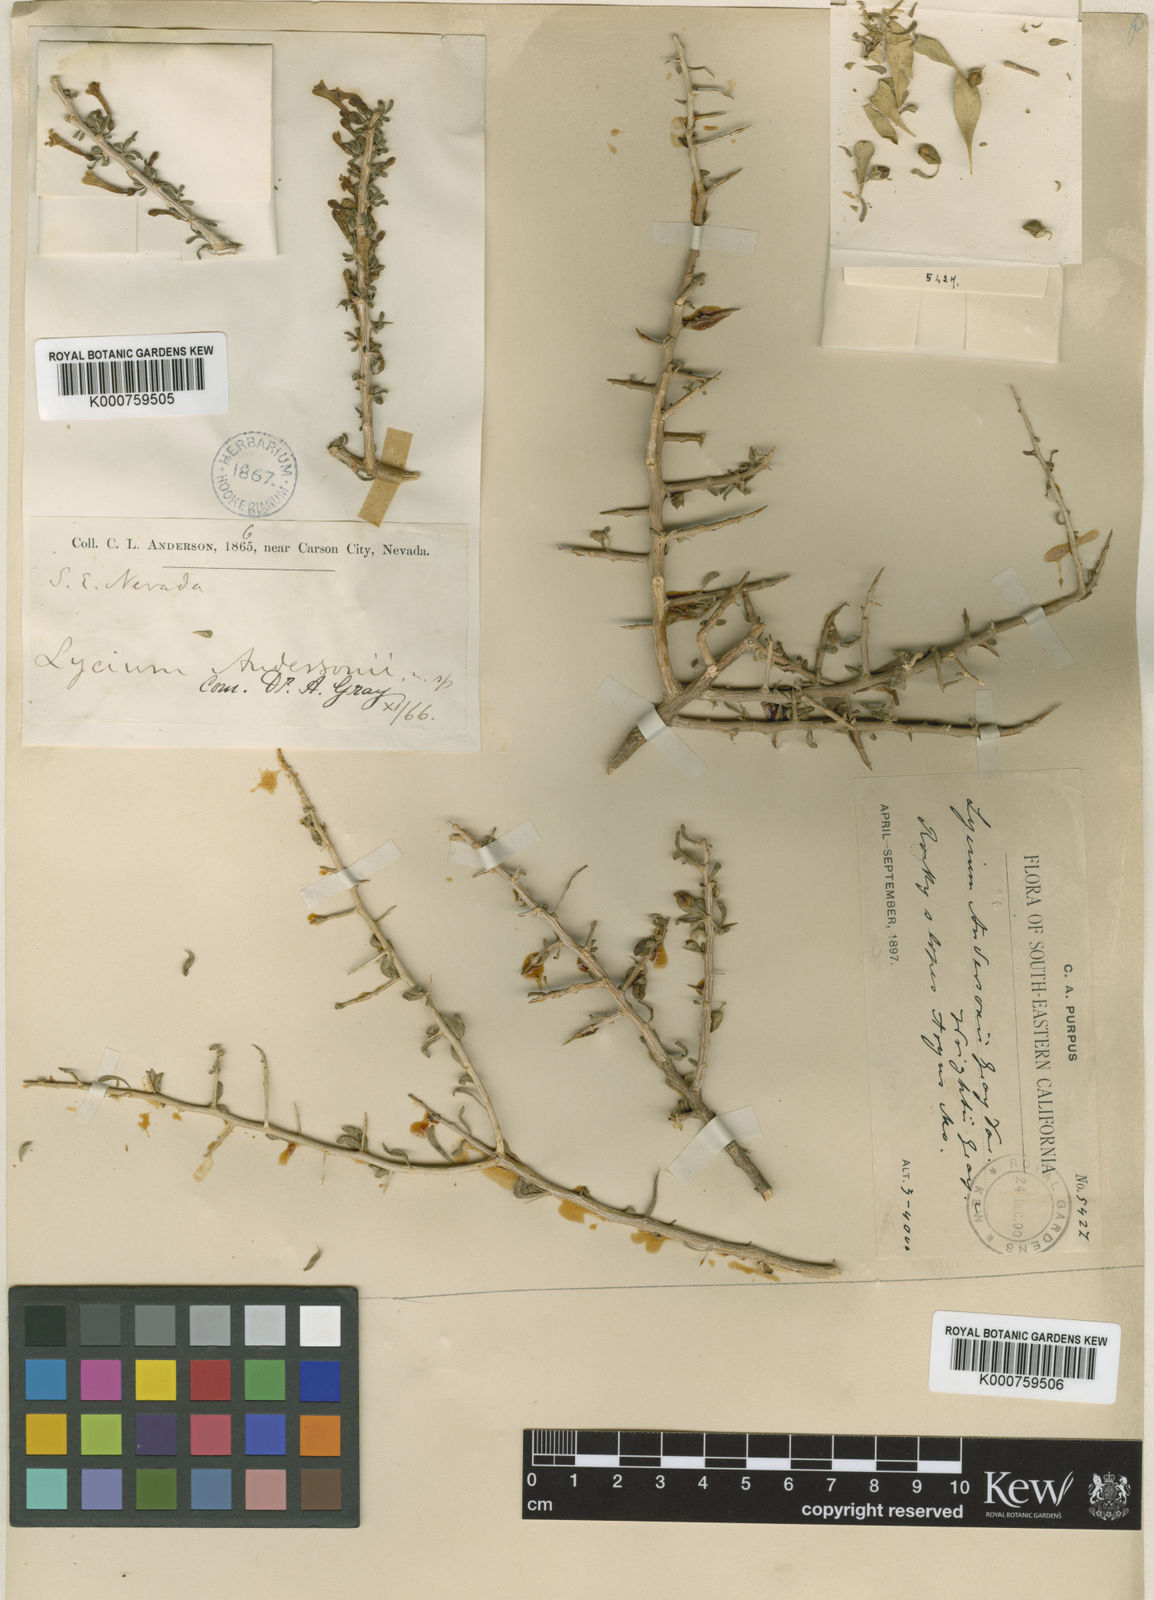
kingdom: Plantae
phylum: Tracheophyta
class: Magnoliopsida
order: Solanales
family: Solanaceae
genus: Lycium
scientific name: Lycium andersonii
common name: Water-jacket
